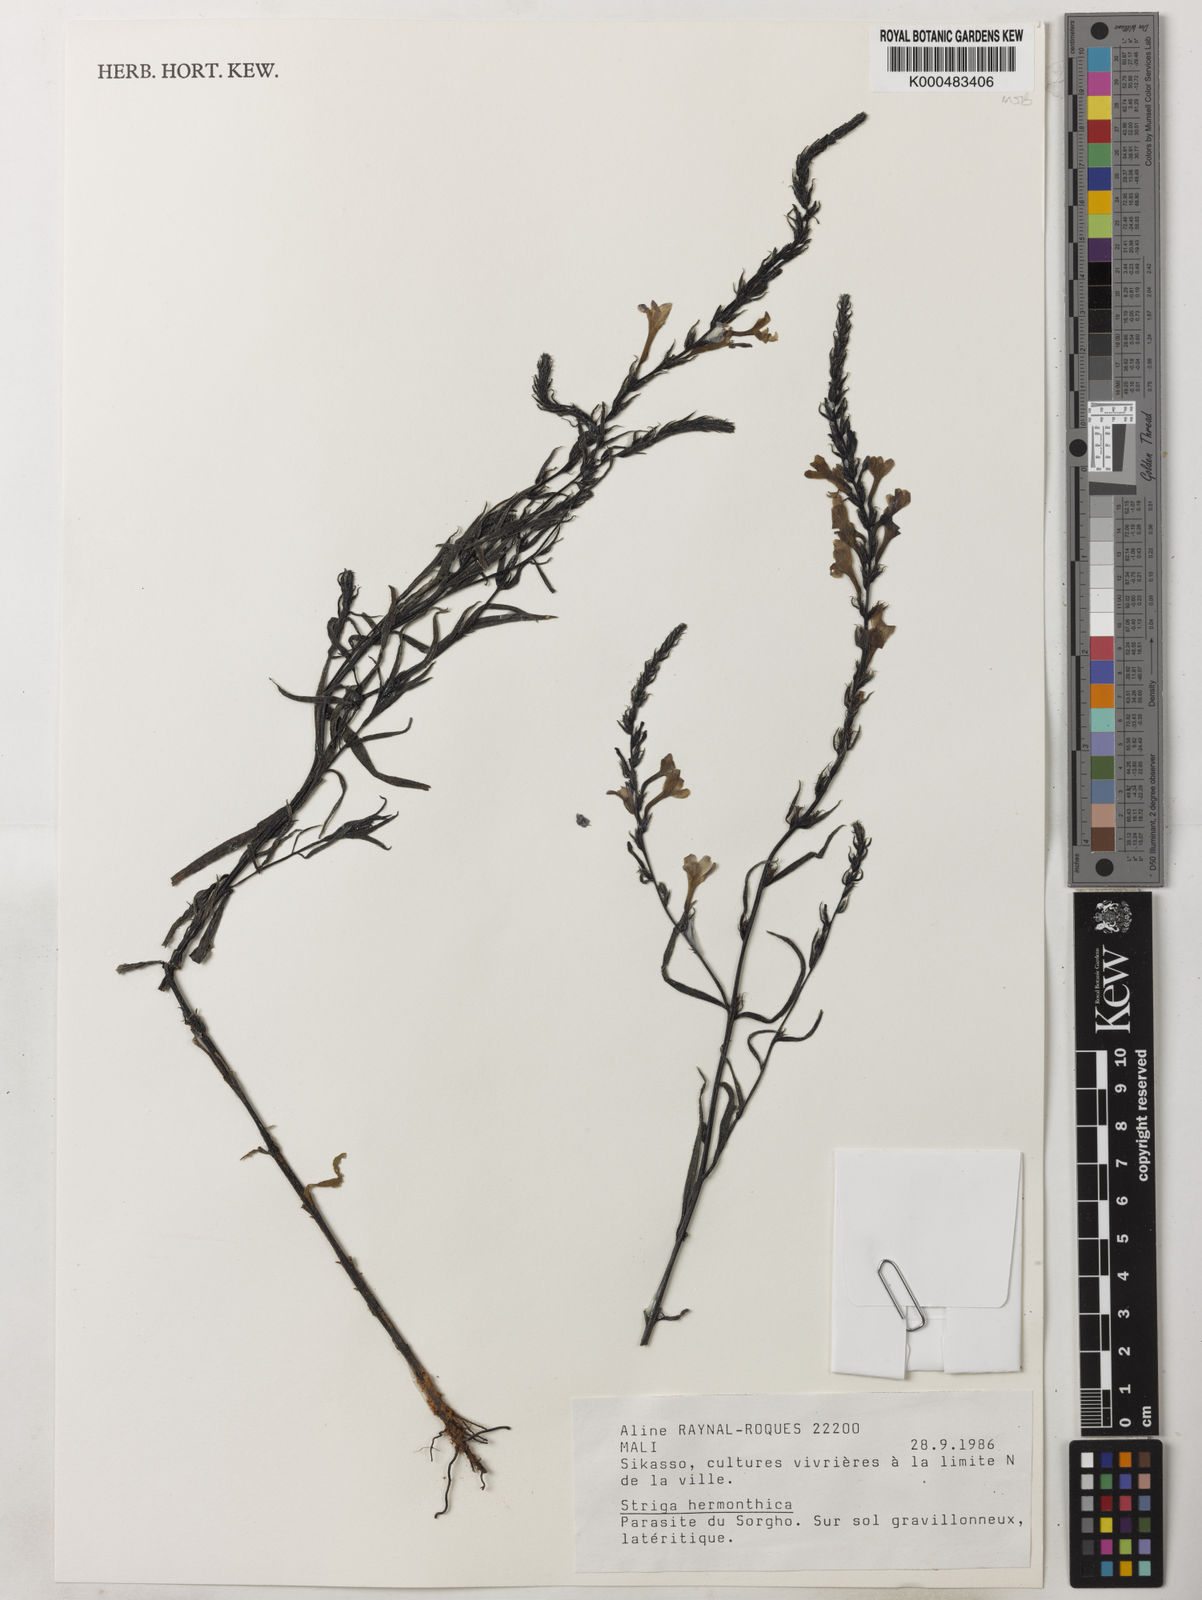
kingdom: Plantae
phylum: Tracheophyta
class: Magnoliopsida
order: Lamiales
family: Orobanchaceae
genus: Striga
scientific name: Striga hermonthica
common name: Purple witchweed
